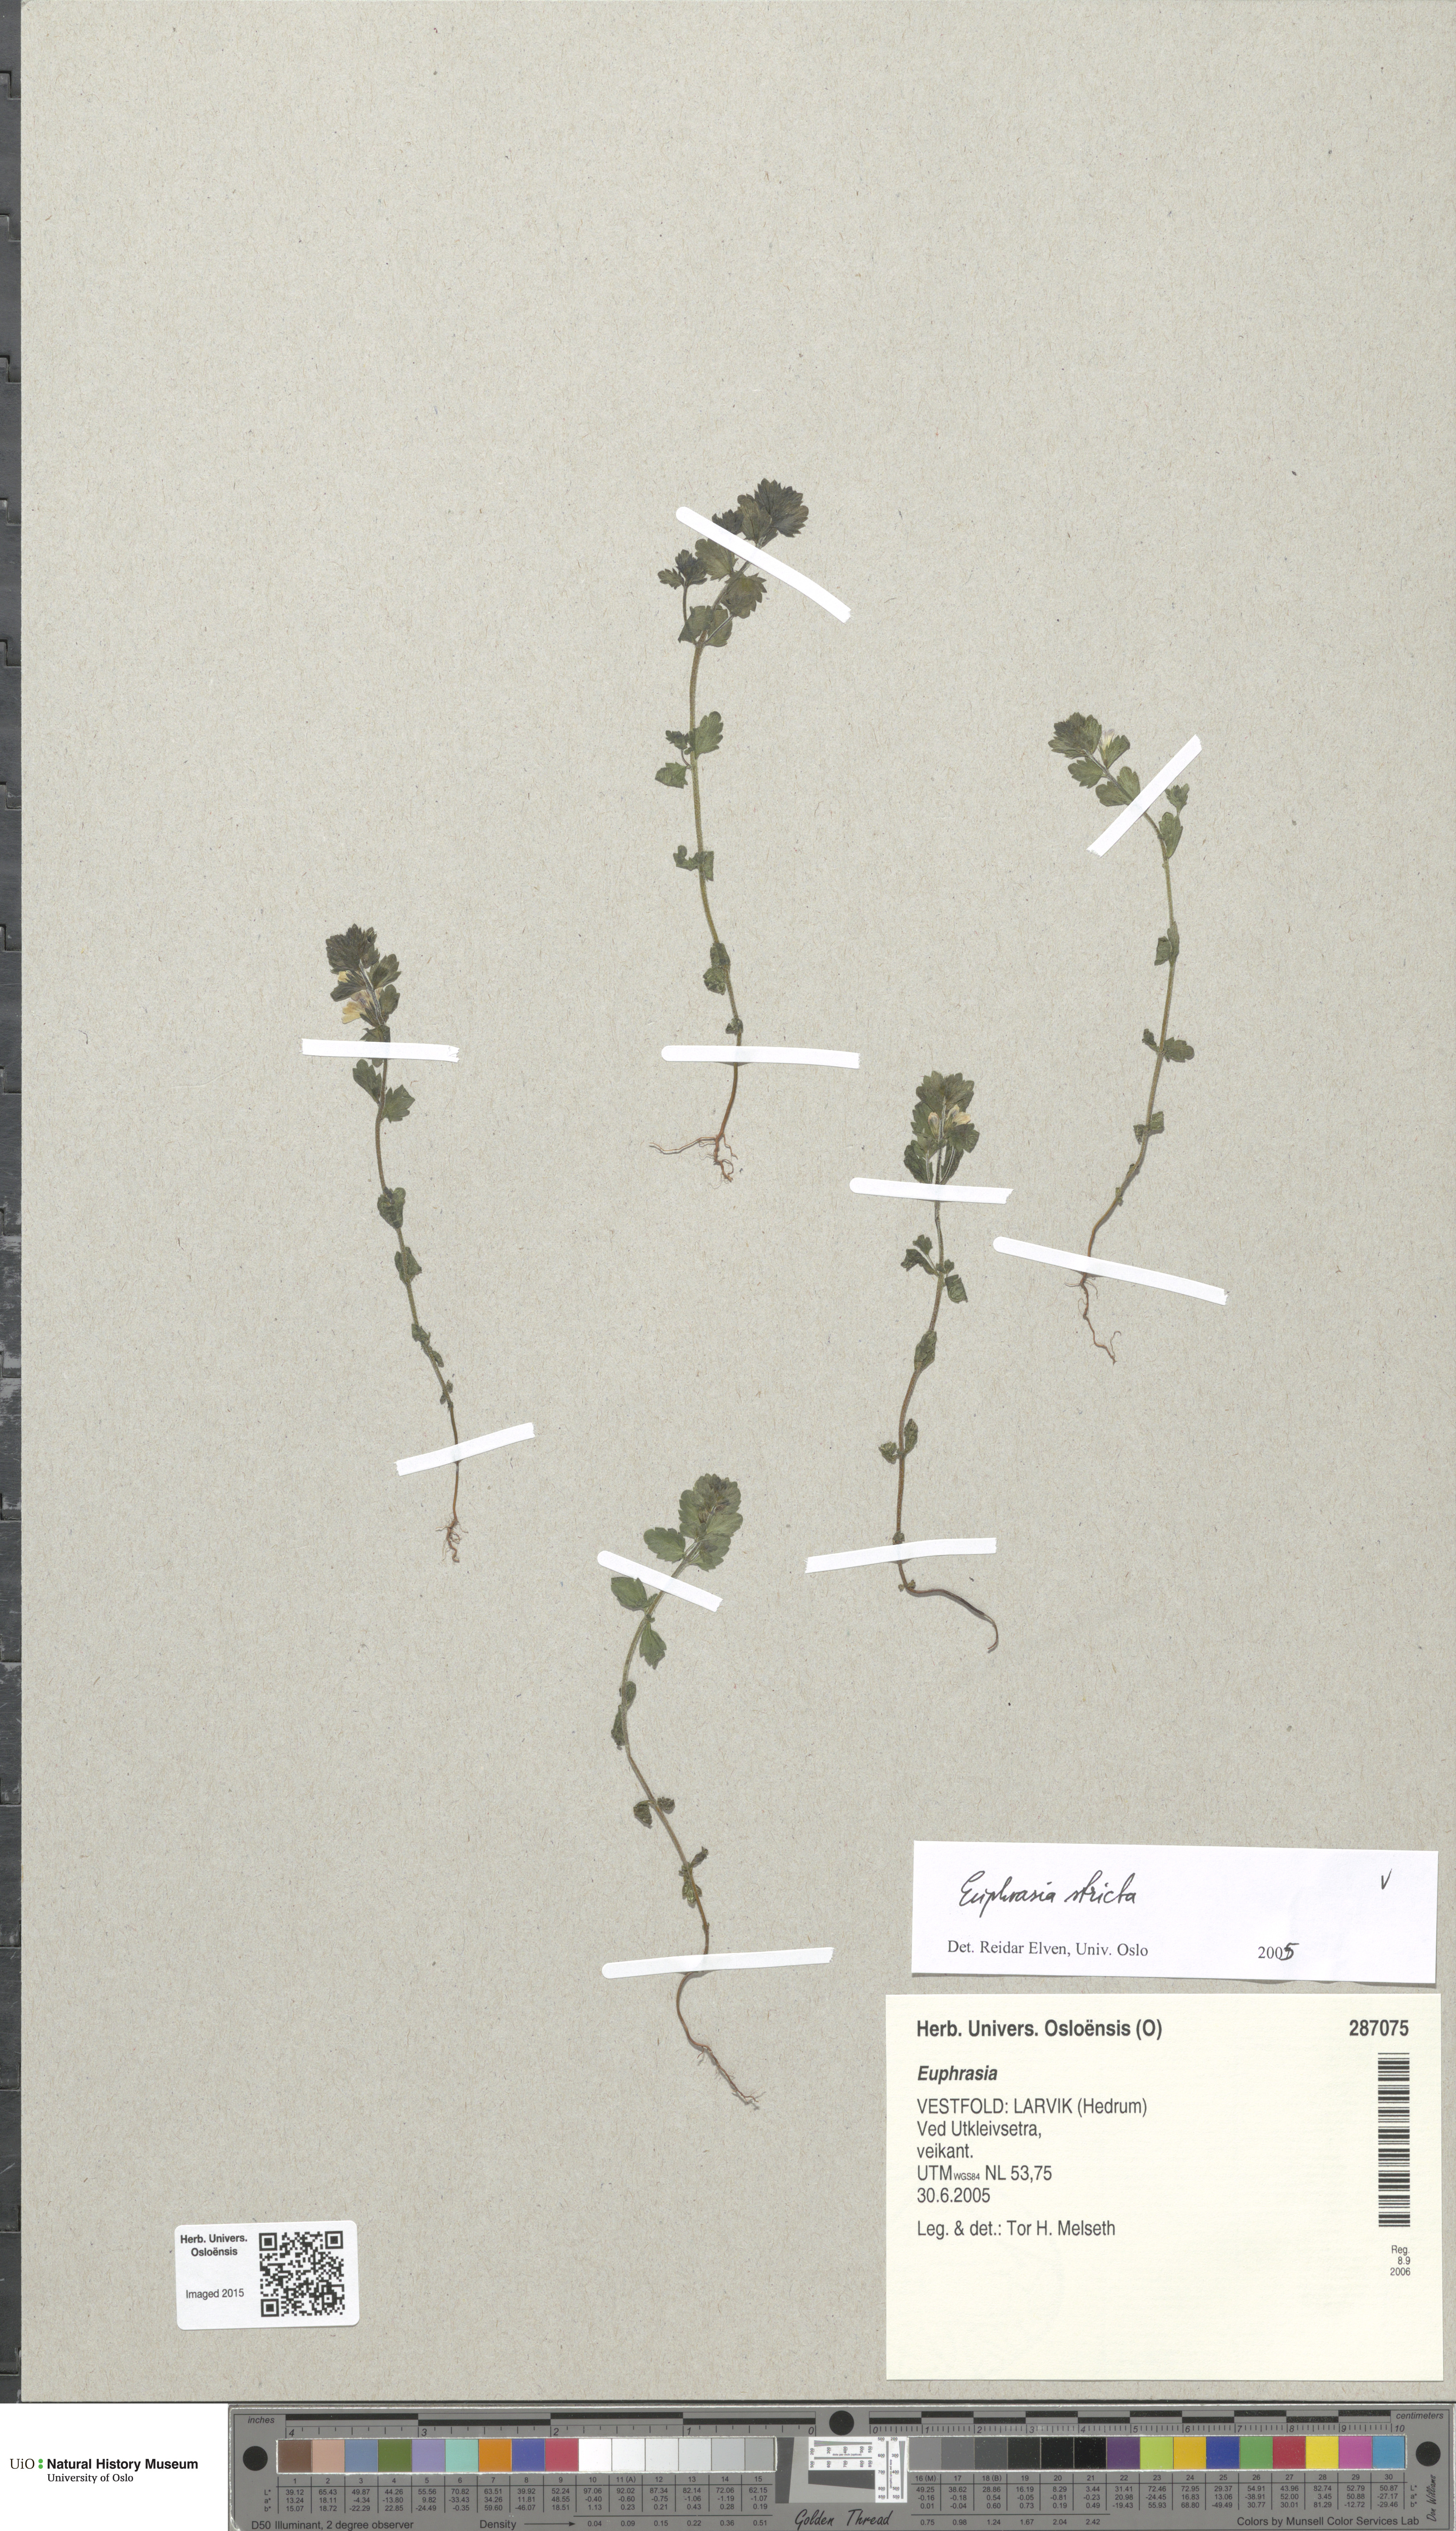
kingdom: Plantae
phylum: Tracheophyta
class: Magnoliopsida
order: Lamiales
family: Orobanchaceae
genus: Euphrasia
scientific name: Euphrasia stricta
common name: Drug eyebright
